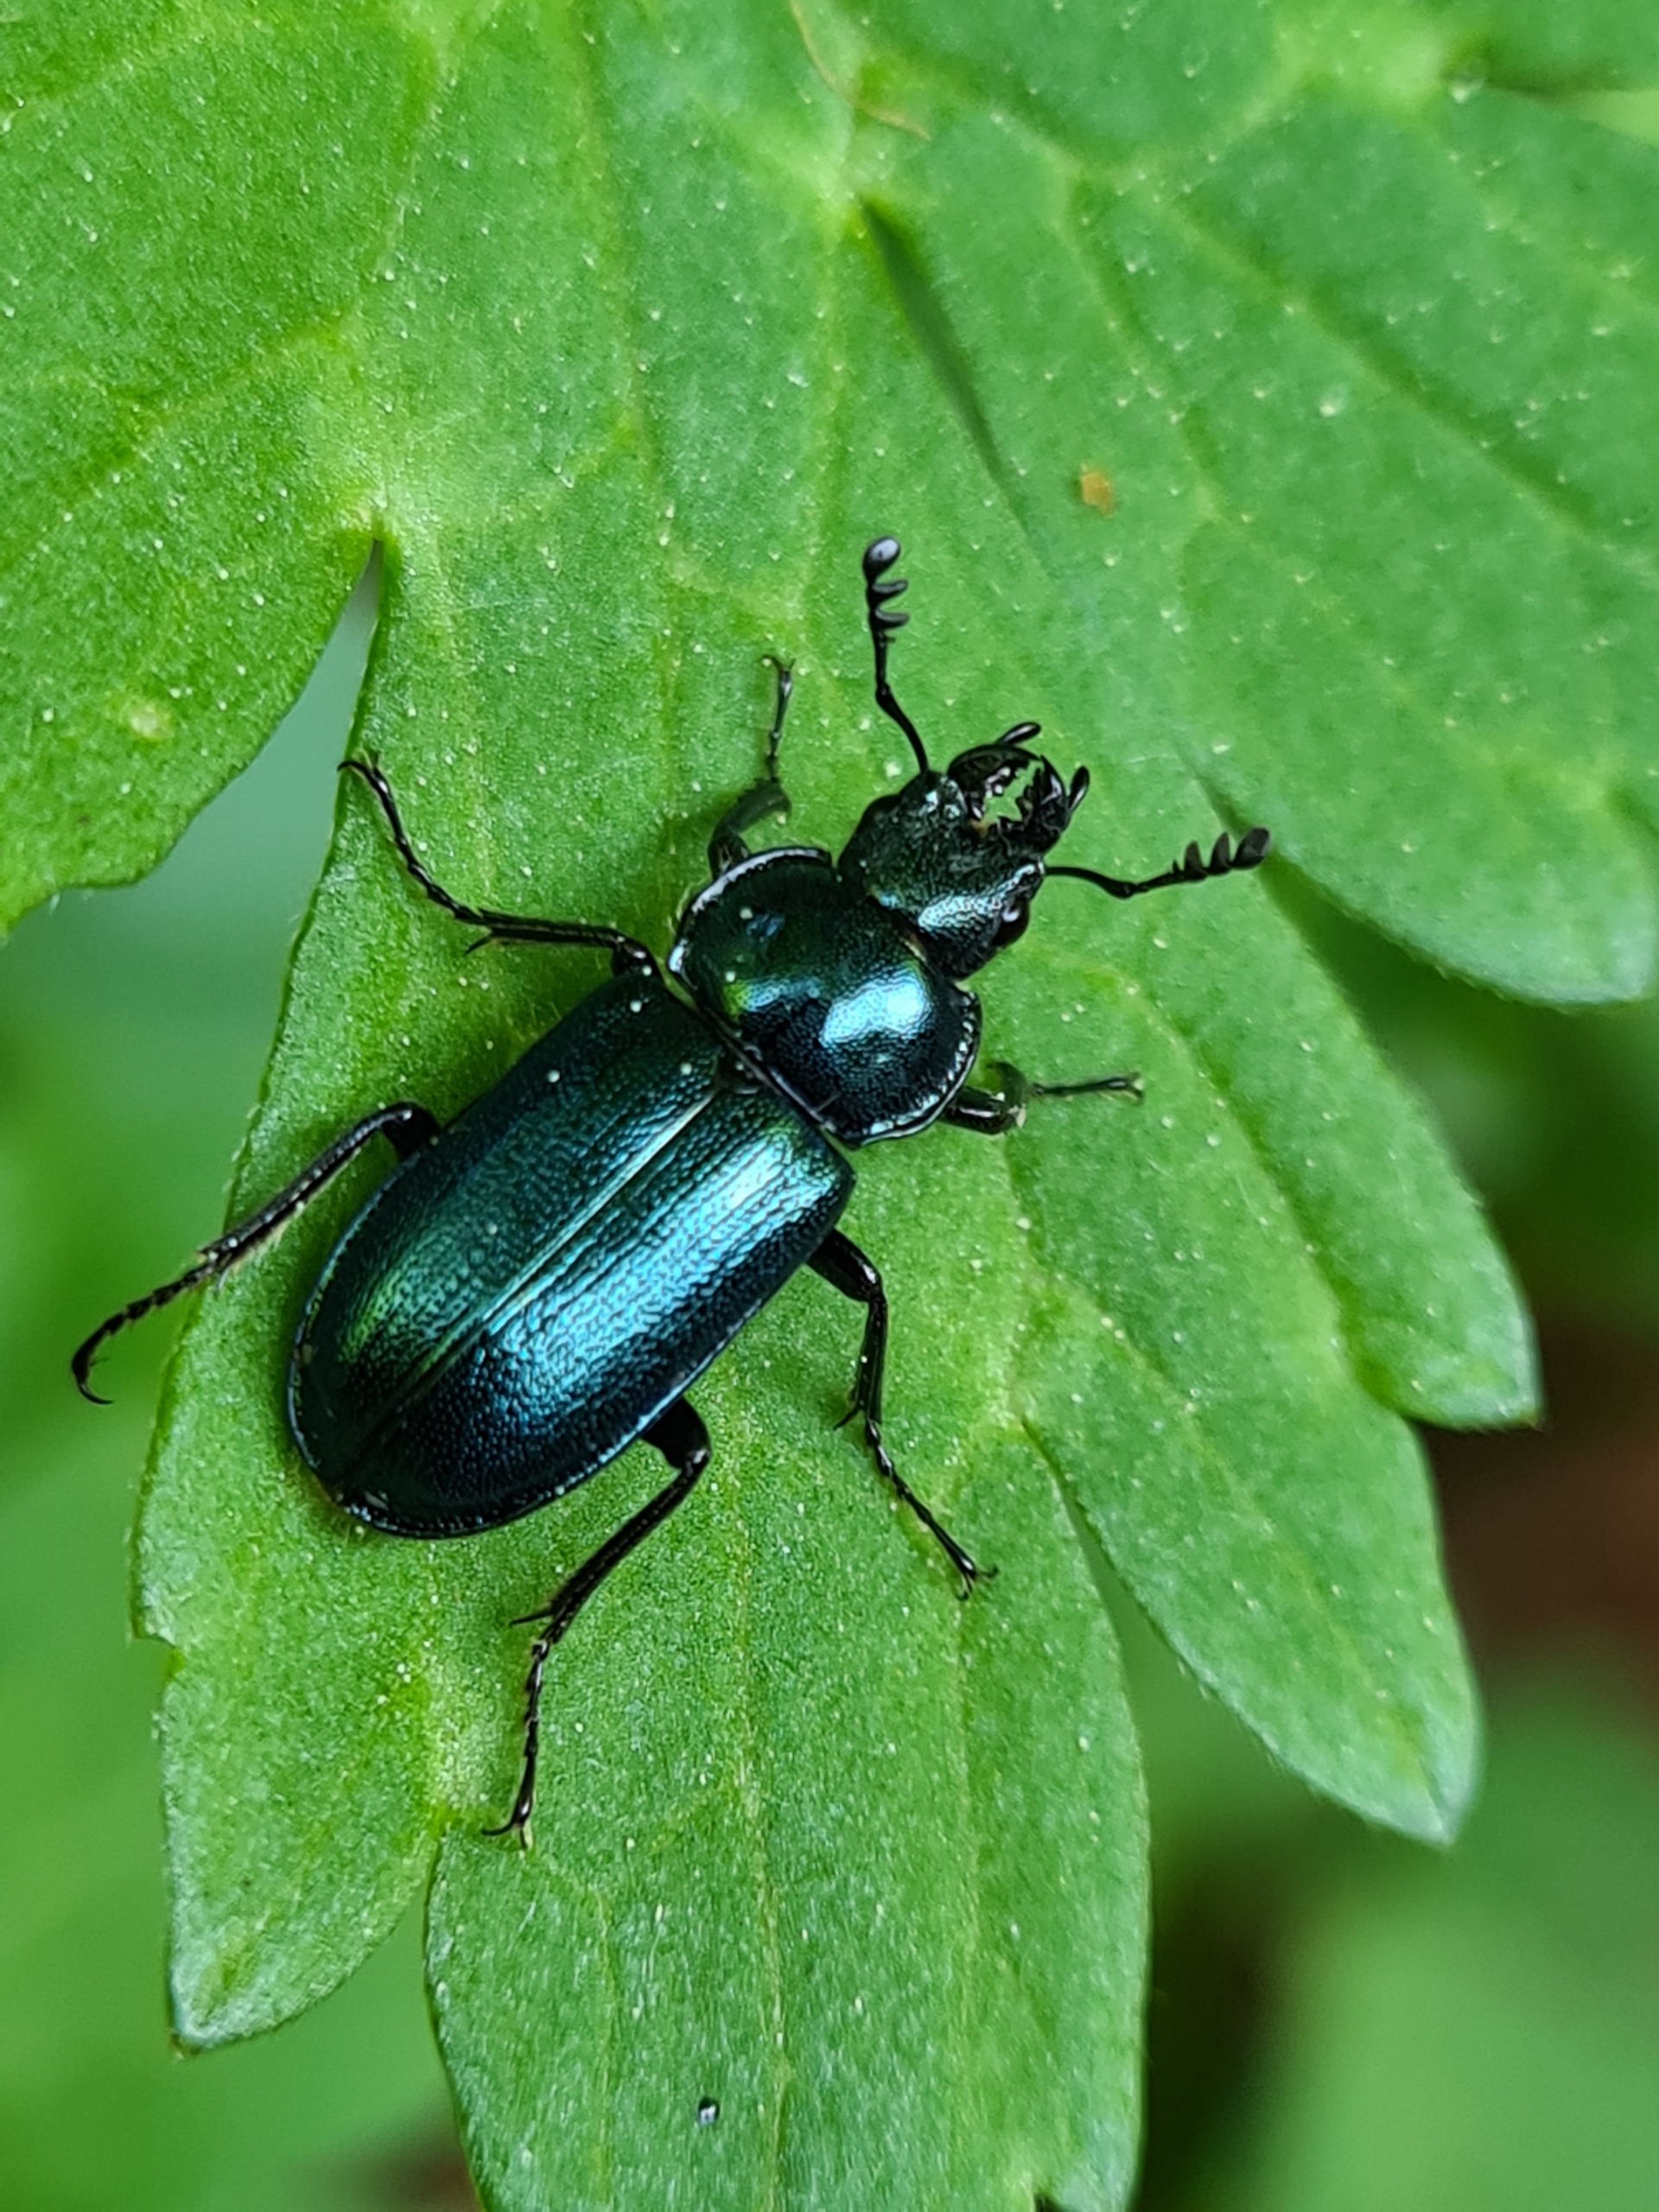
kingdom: Animalia
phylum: Arthropoda
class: Insecta
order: Coleoptera
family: Lucanidae
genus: Platycerus
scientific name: Platycerus caraboides
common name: Blåhjort
